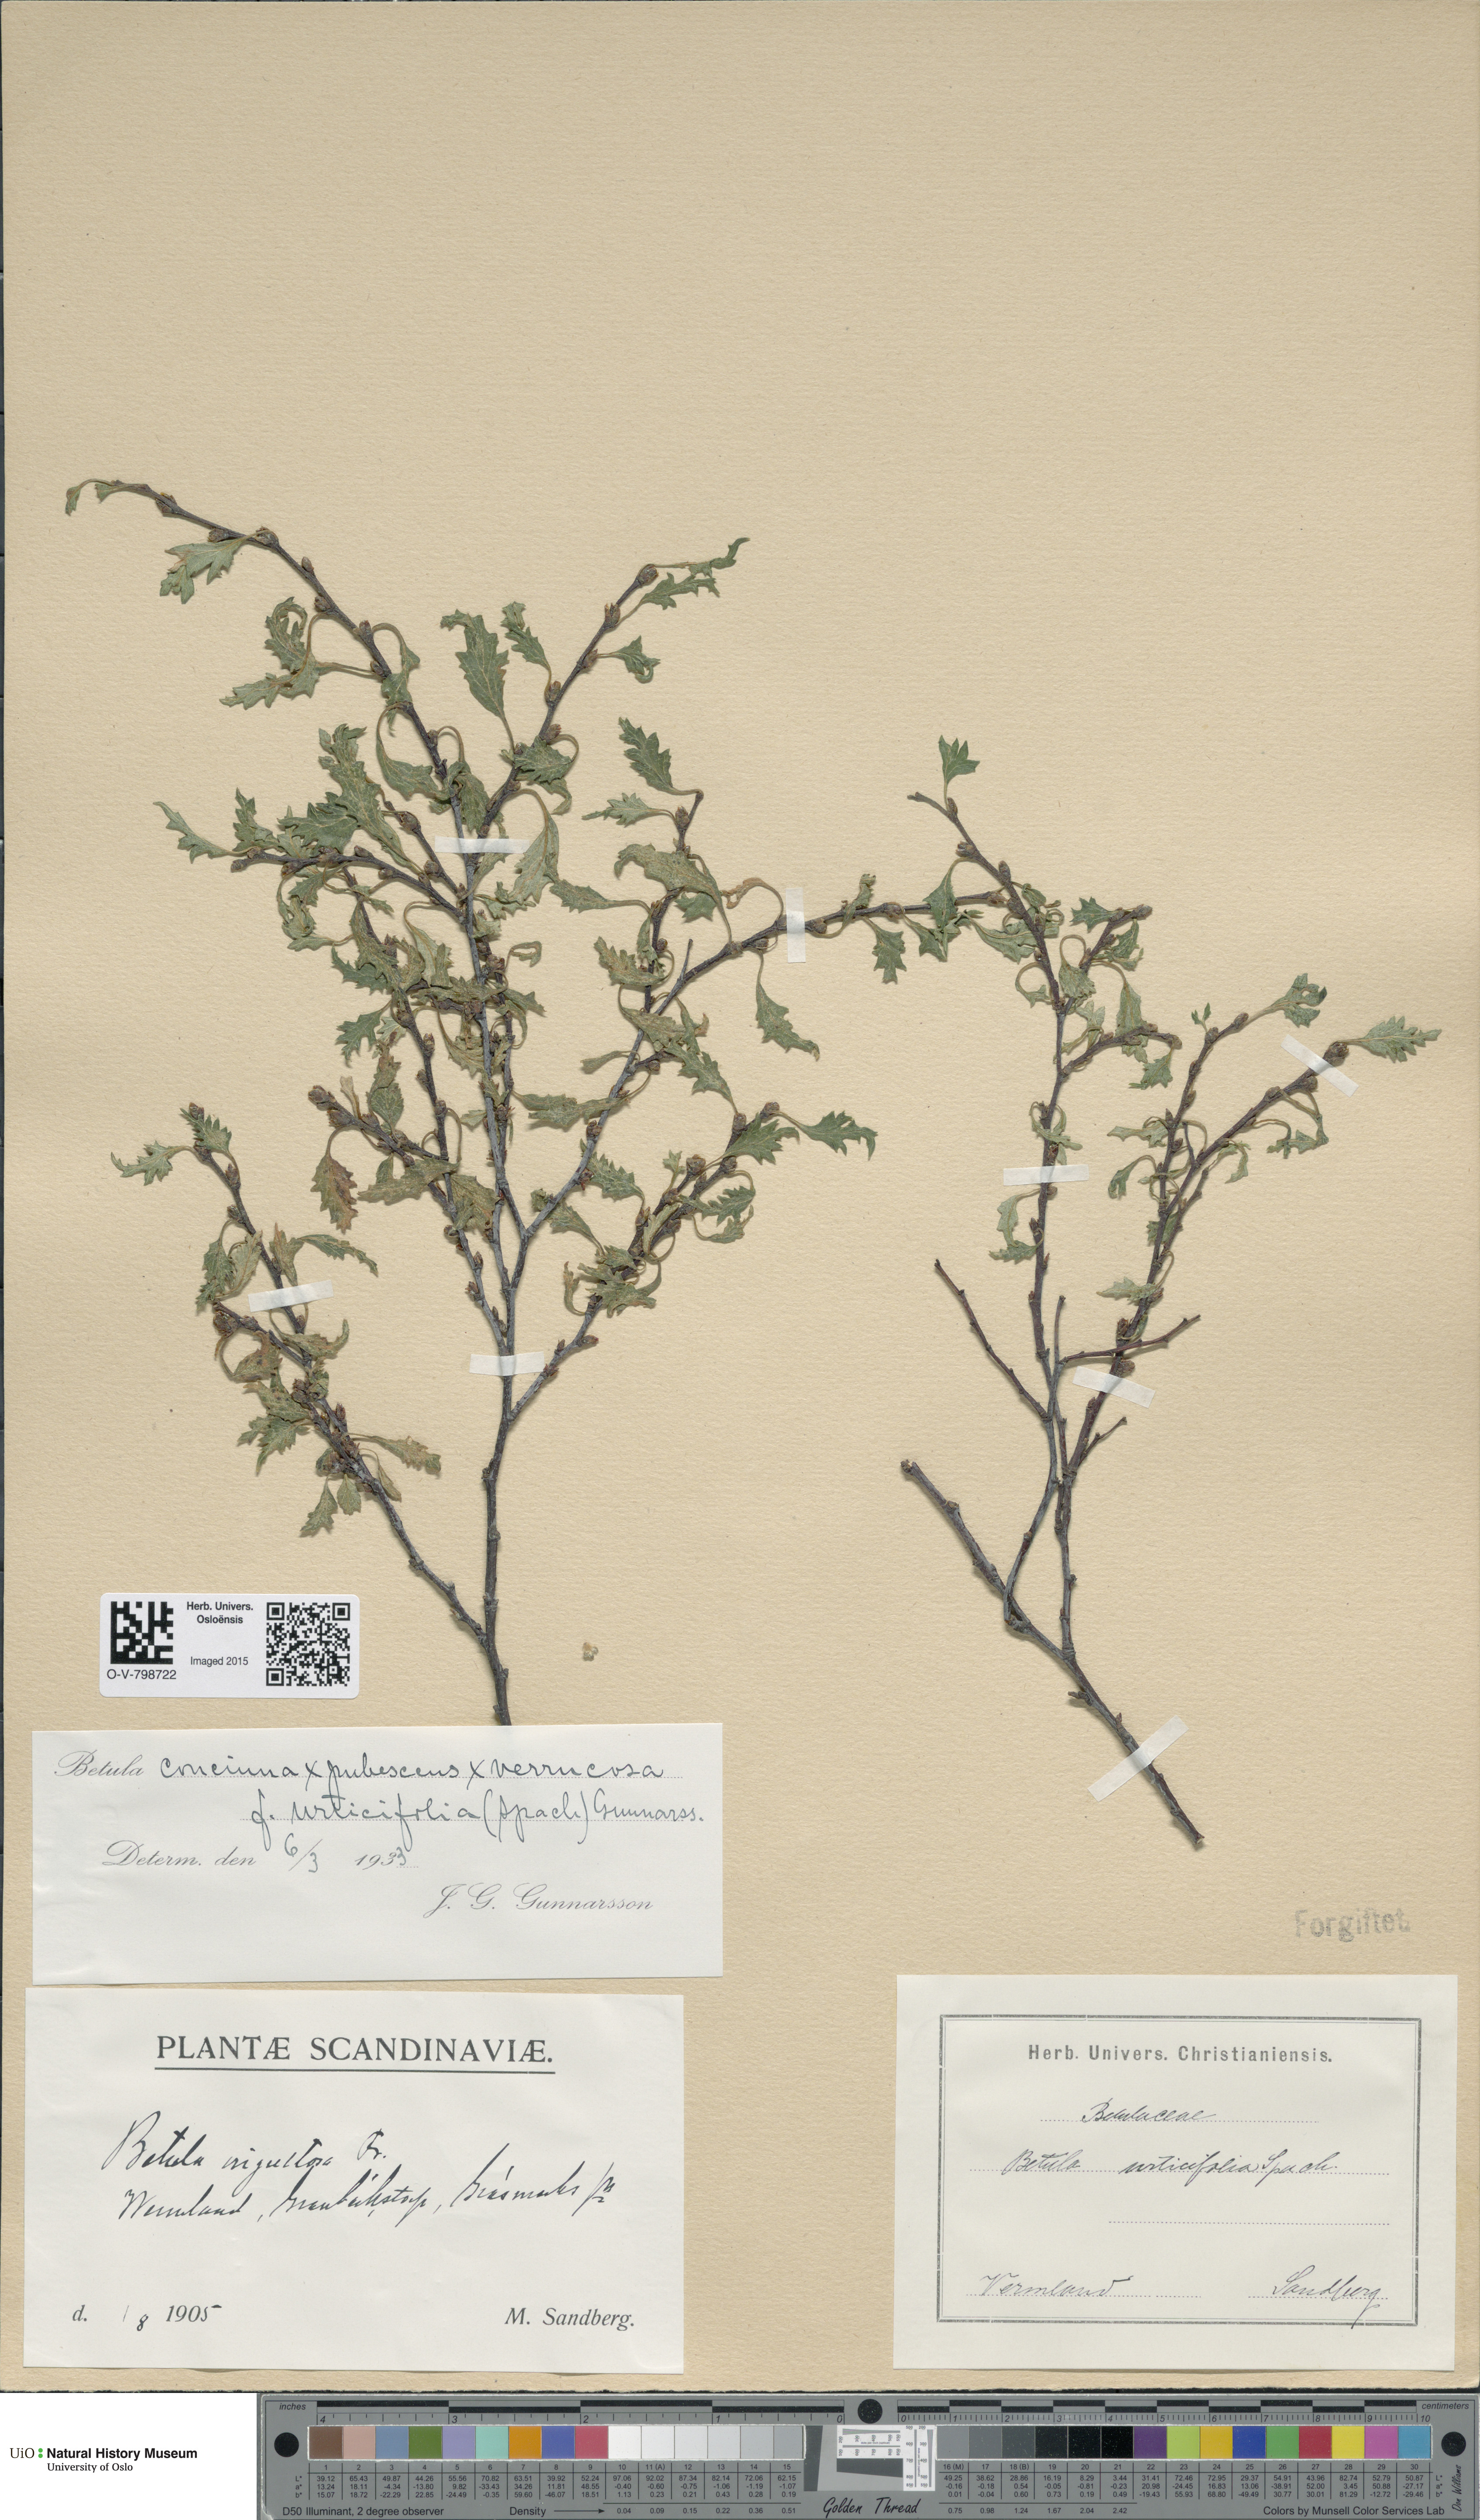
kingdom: Plantae
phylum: Tracheophyta
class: Magnoliopsida
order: Fagales
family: Betulaceae
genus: Betula
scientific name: Betula
